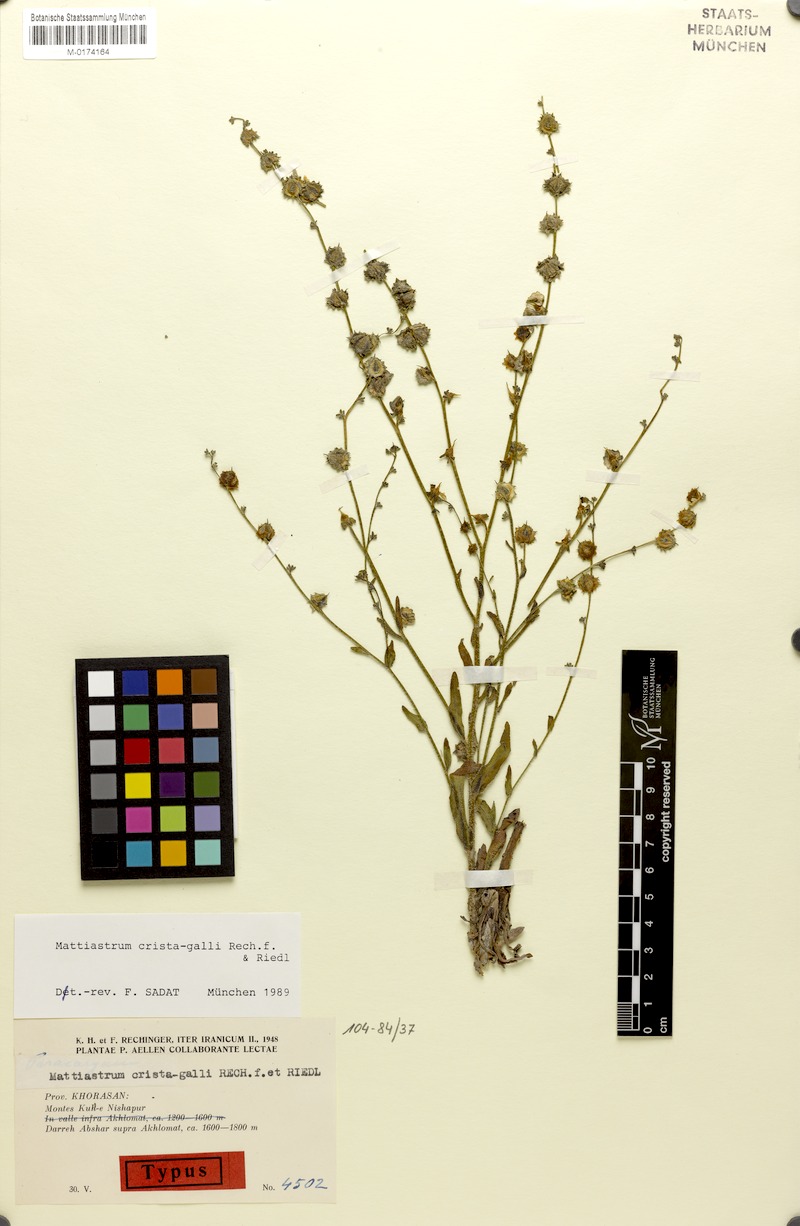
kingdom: Plantae
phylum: Tracheophyta
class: Magnoliopsida
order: Boraginales
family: Boraginaceae
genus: Paracaryum
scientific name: Paracaryum crista-galli
